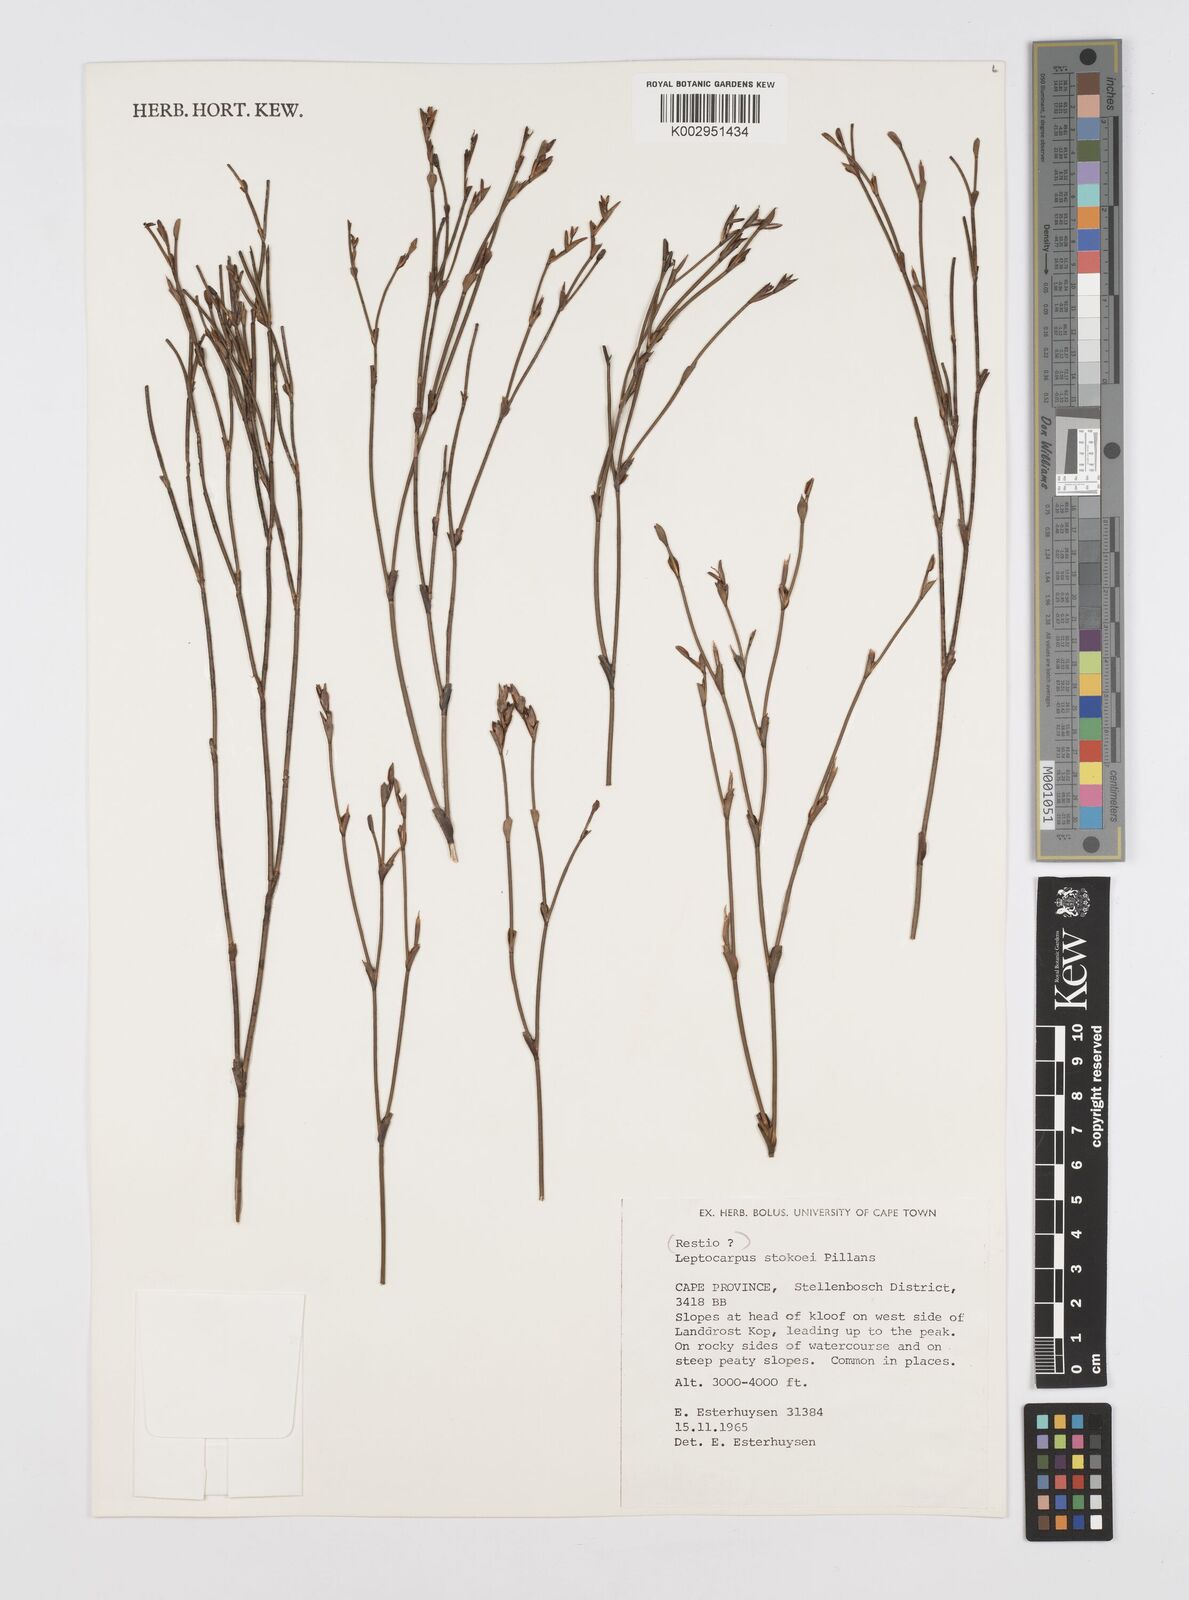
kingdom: Plantae
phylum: Tracheophyta
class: Liliopsida
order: Poales
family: Restionaceae
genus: Restio
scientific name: Restio pillansii
